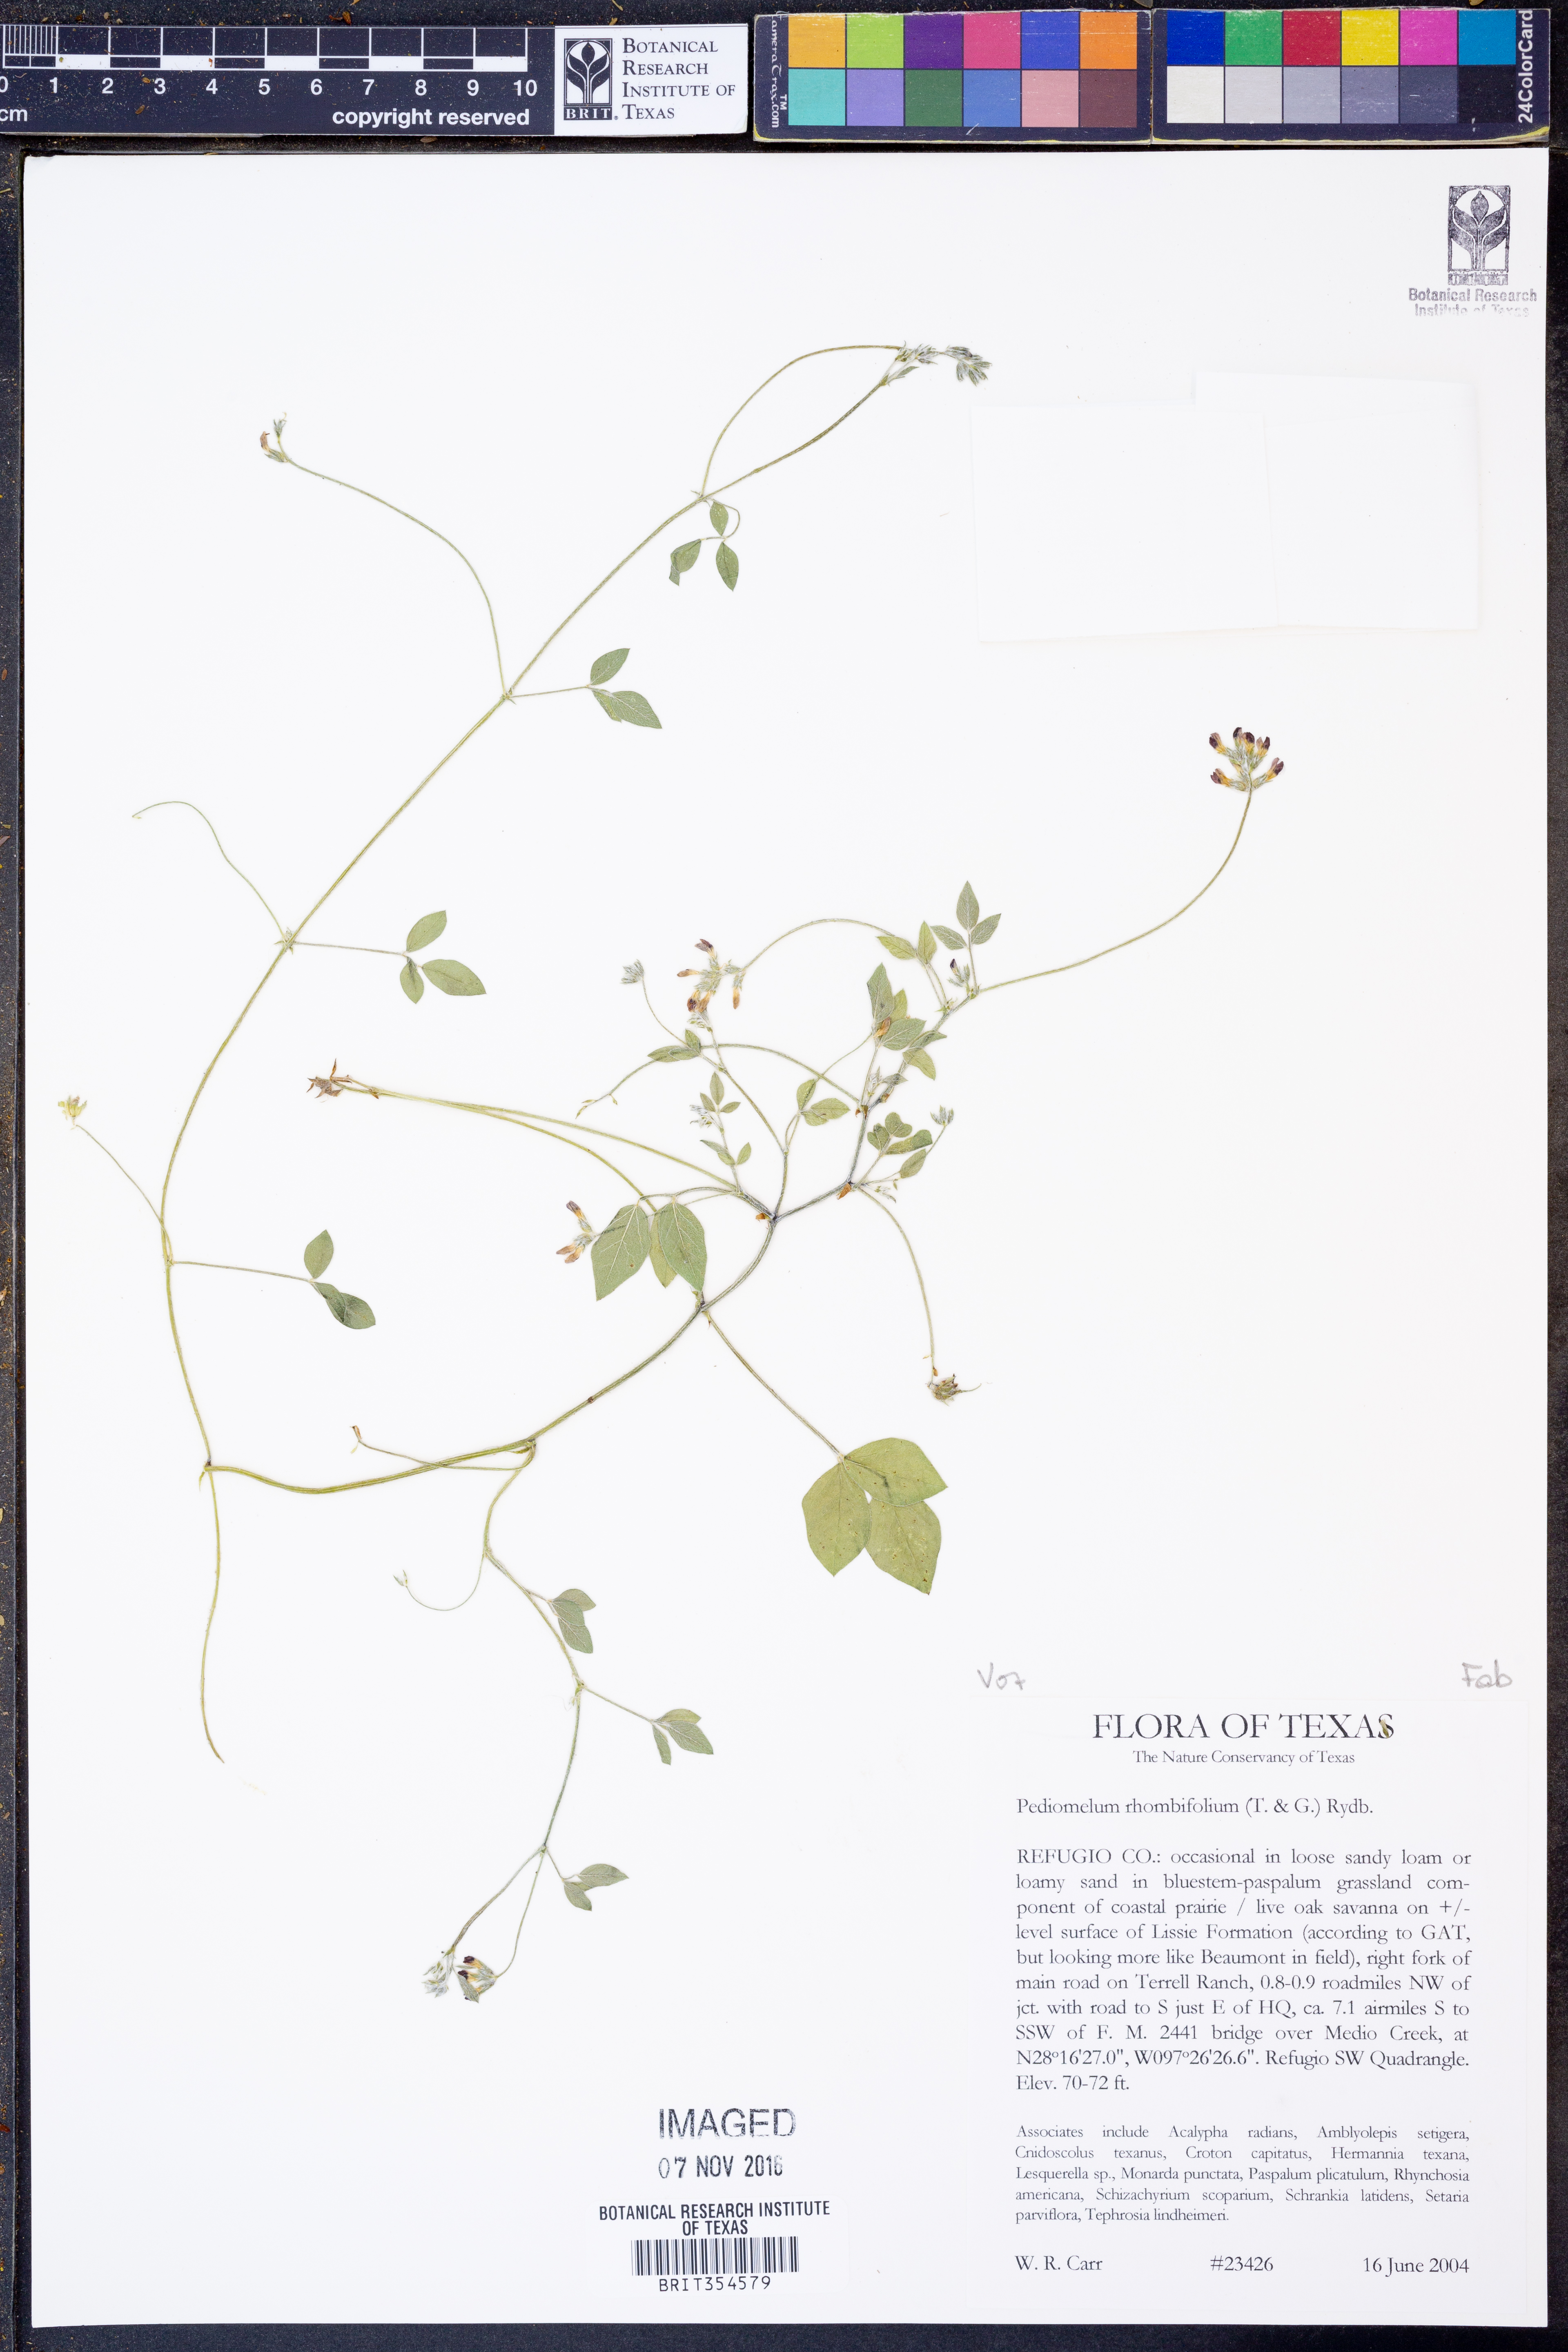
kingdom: Plantae
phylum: Tracheophyta
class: Magnoliopsida
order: Fabales
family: Fabaceae
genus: Pediomelum
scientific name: Pediomelum rhombifolium
